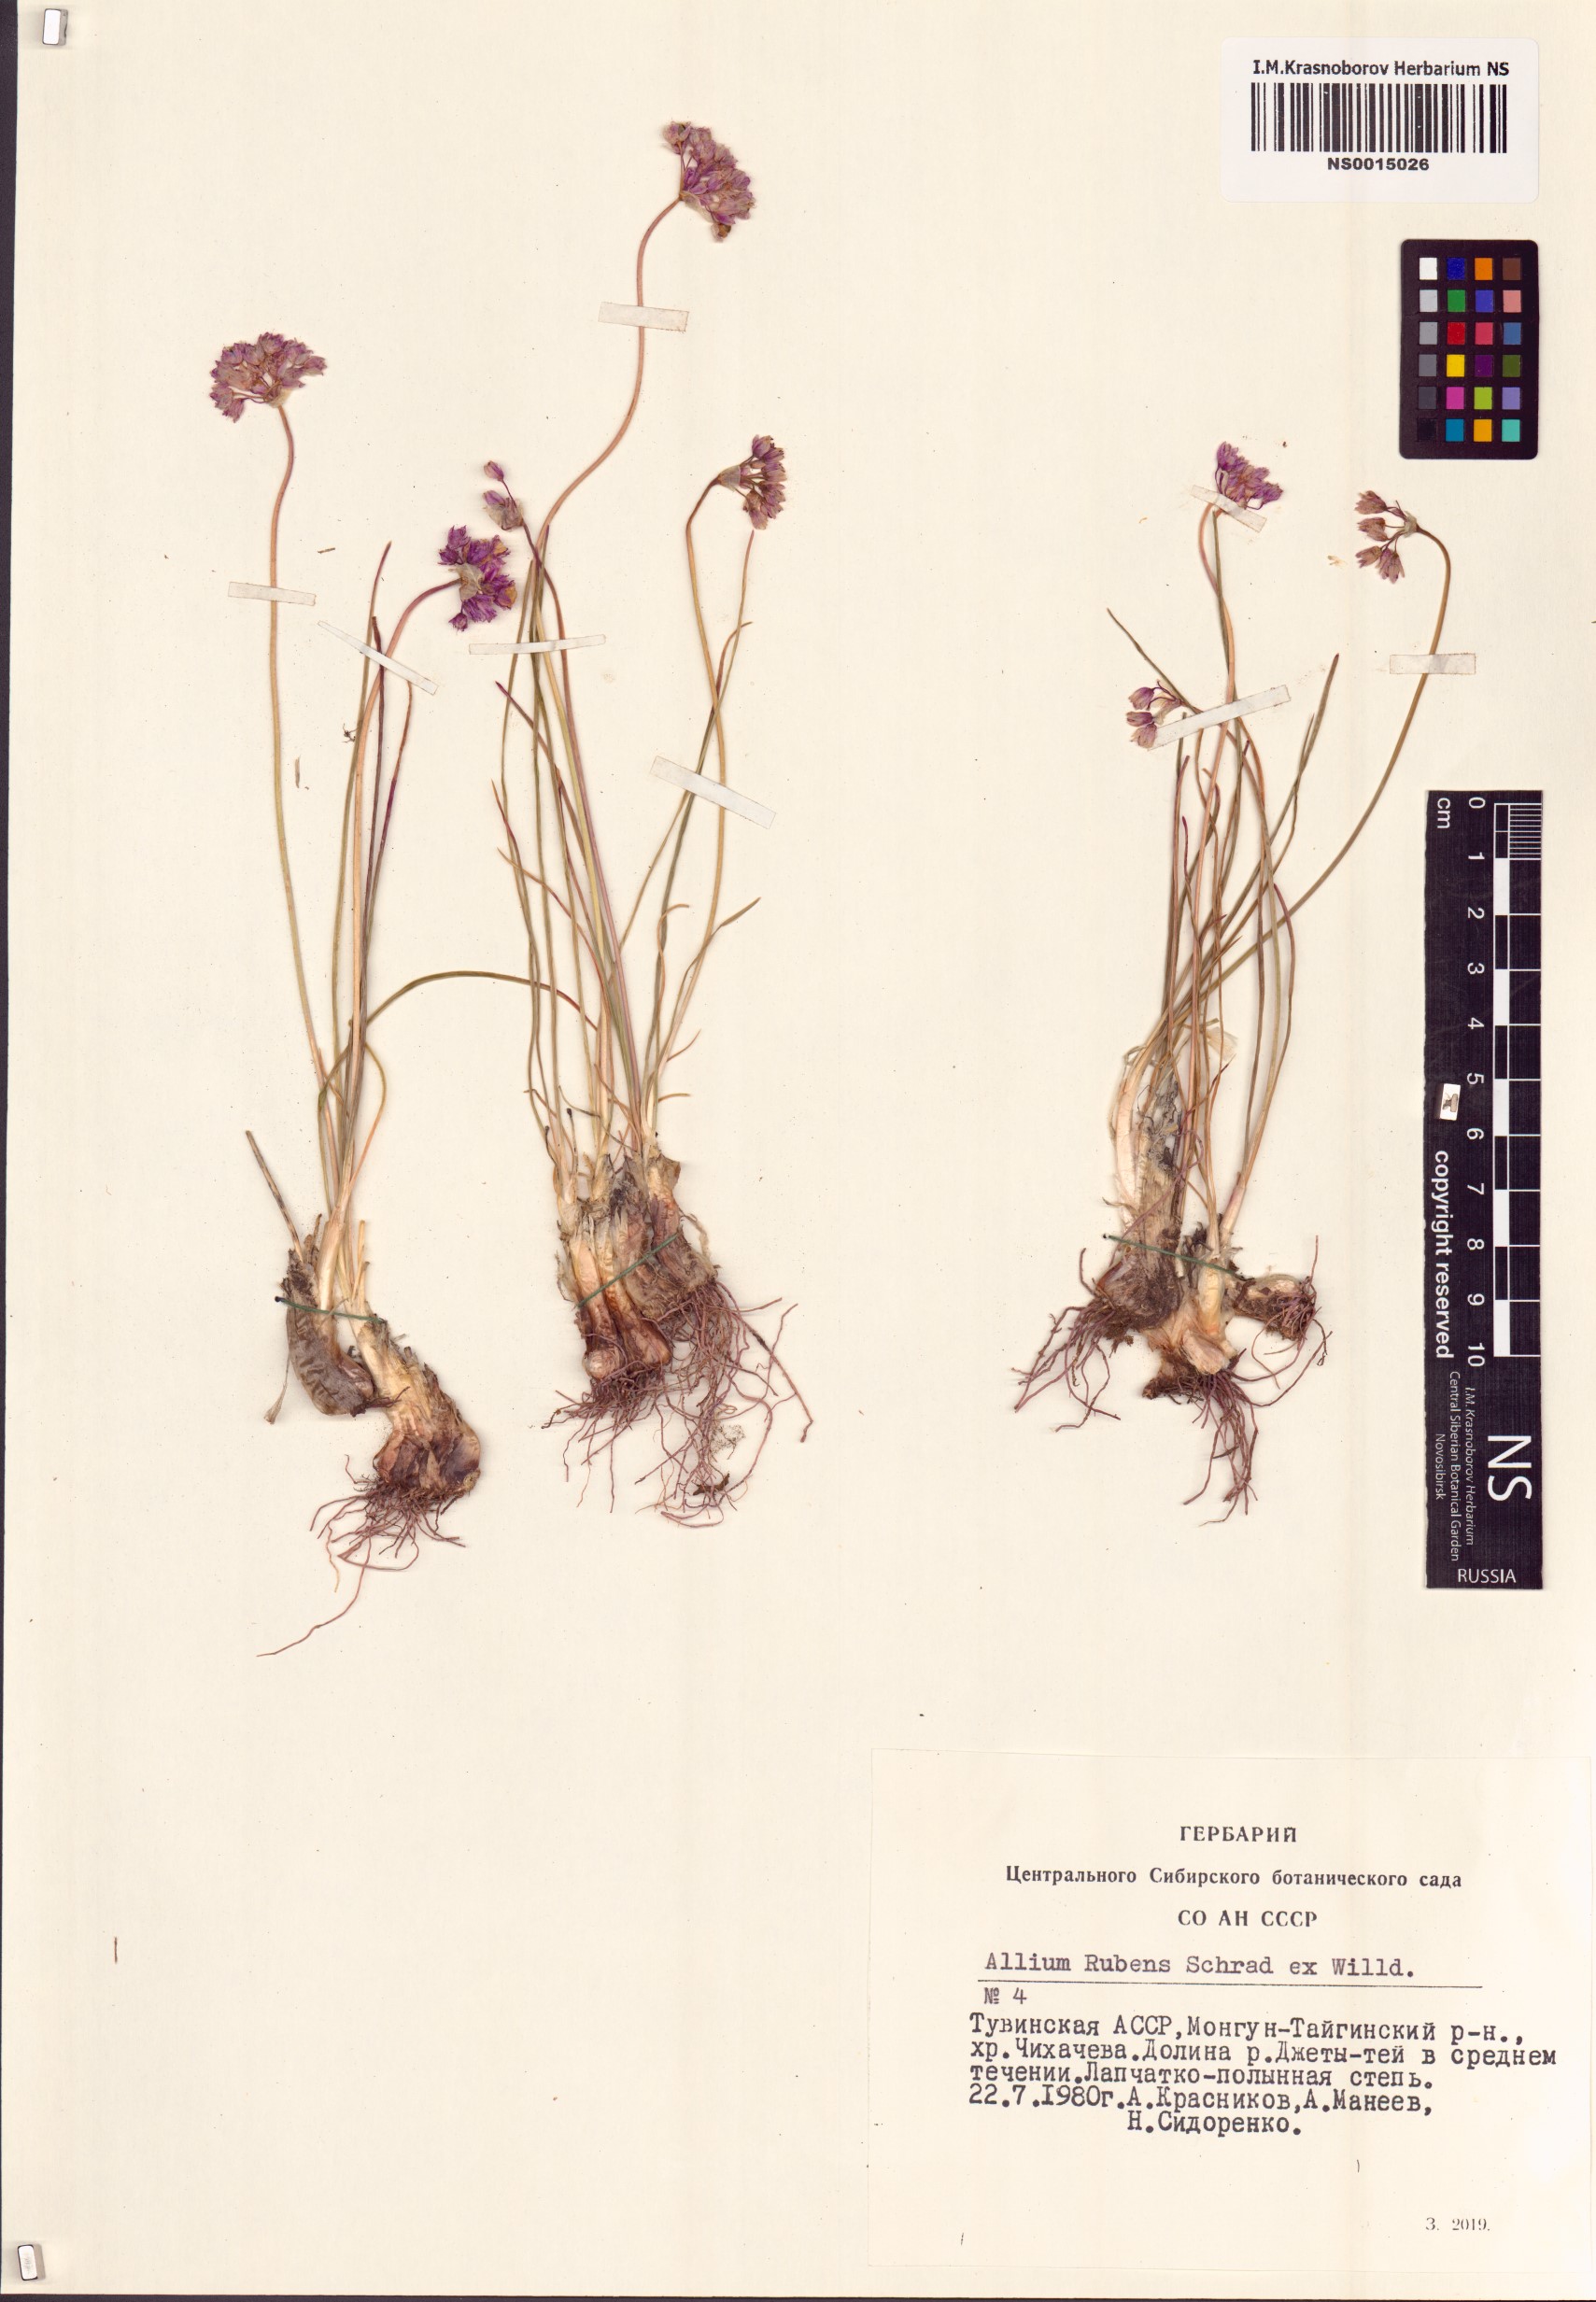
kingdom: Plantae
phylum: Tracheophyta
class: Liliopsida
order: Asparagales
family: Amaryllidaceae
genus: Allium
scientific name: Allium rubens
